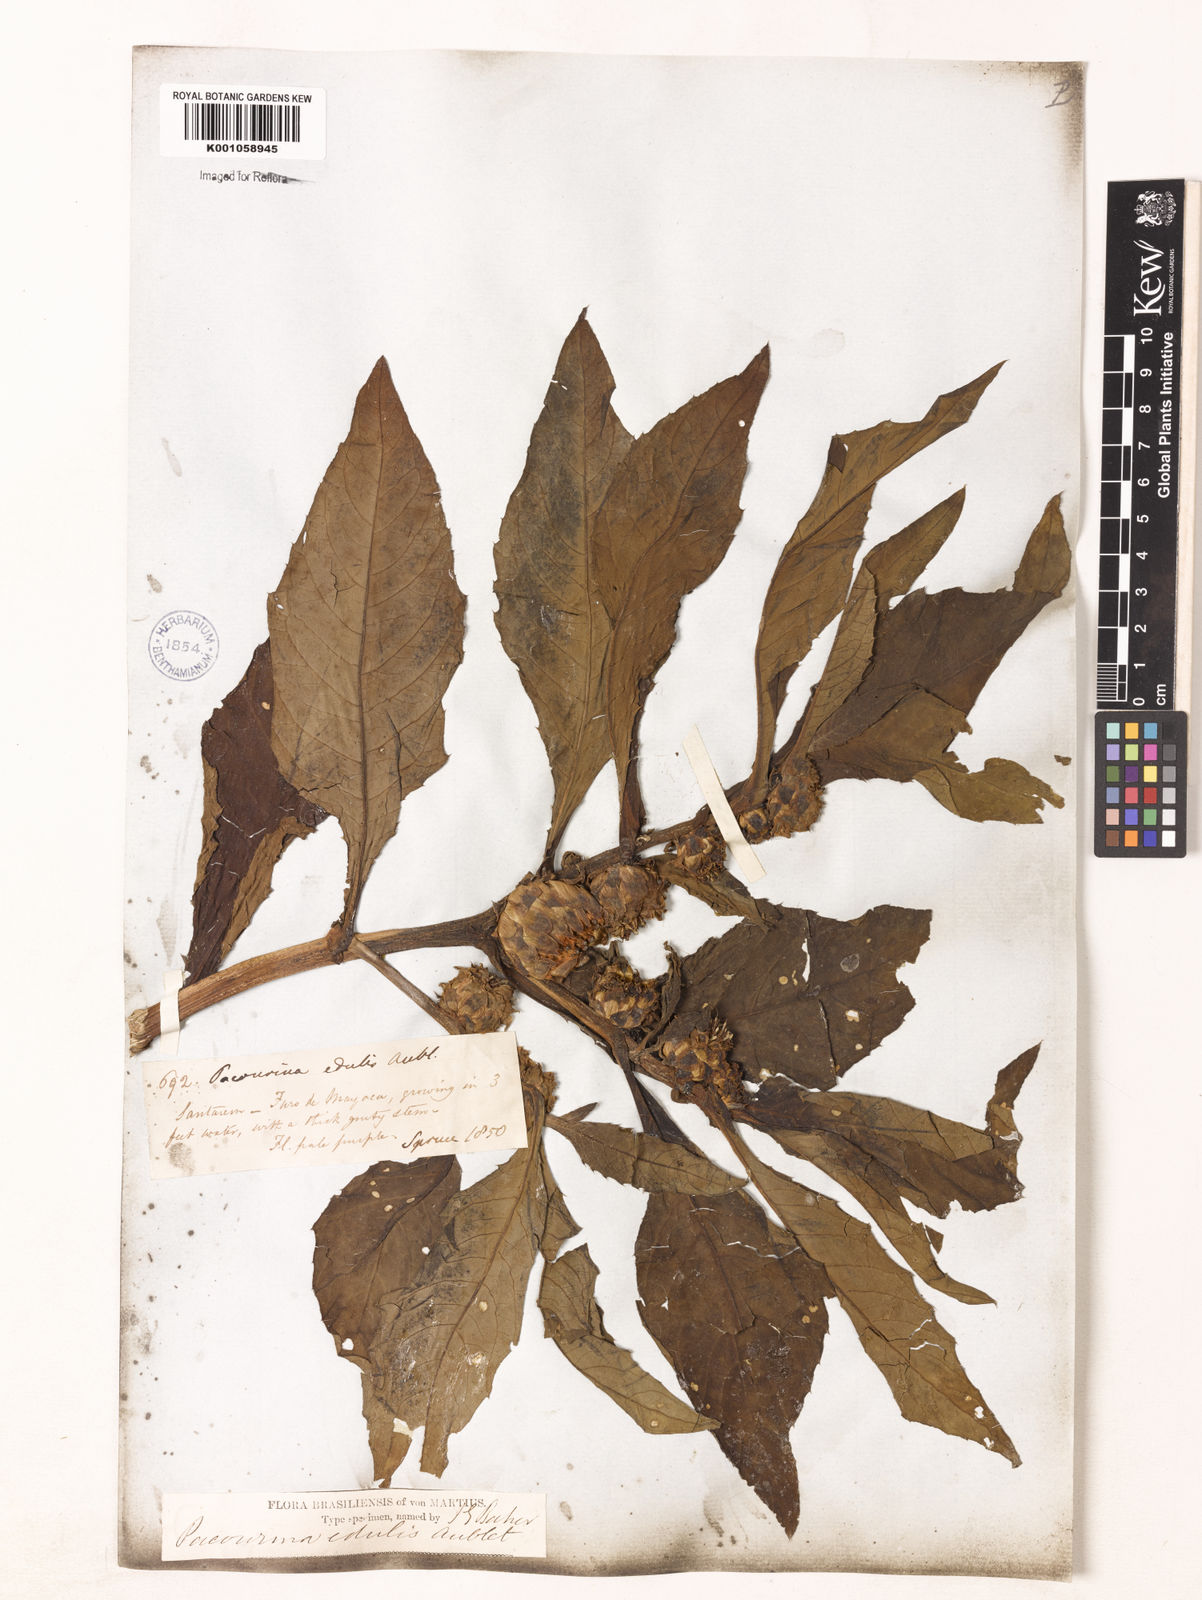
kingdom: Plantae
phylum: Tracheophyta
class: Magnoliopsida
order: Asterales
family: Asteraceae
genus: Pacourina
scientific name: Pacourina
